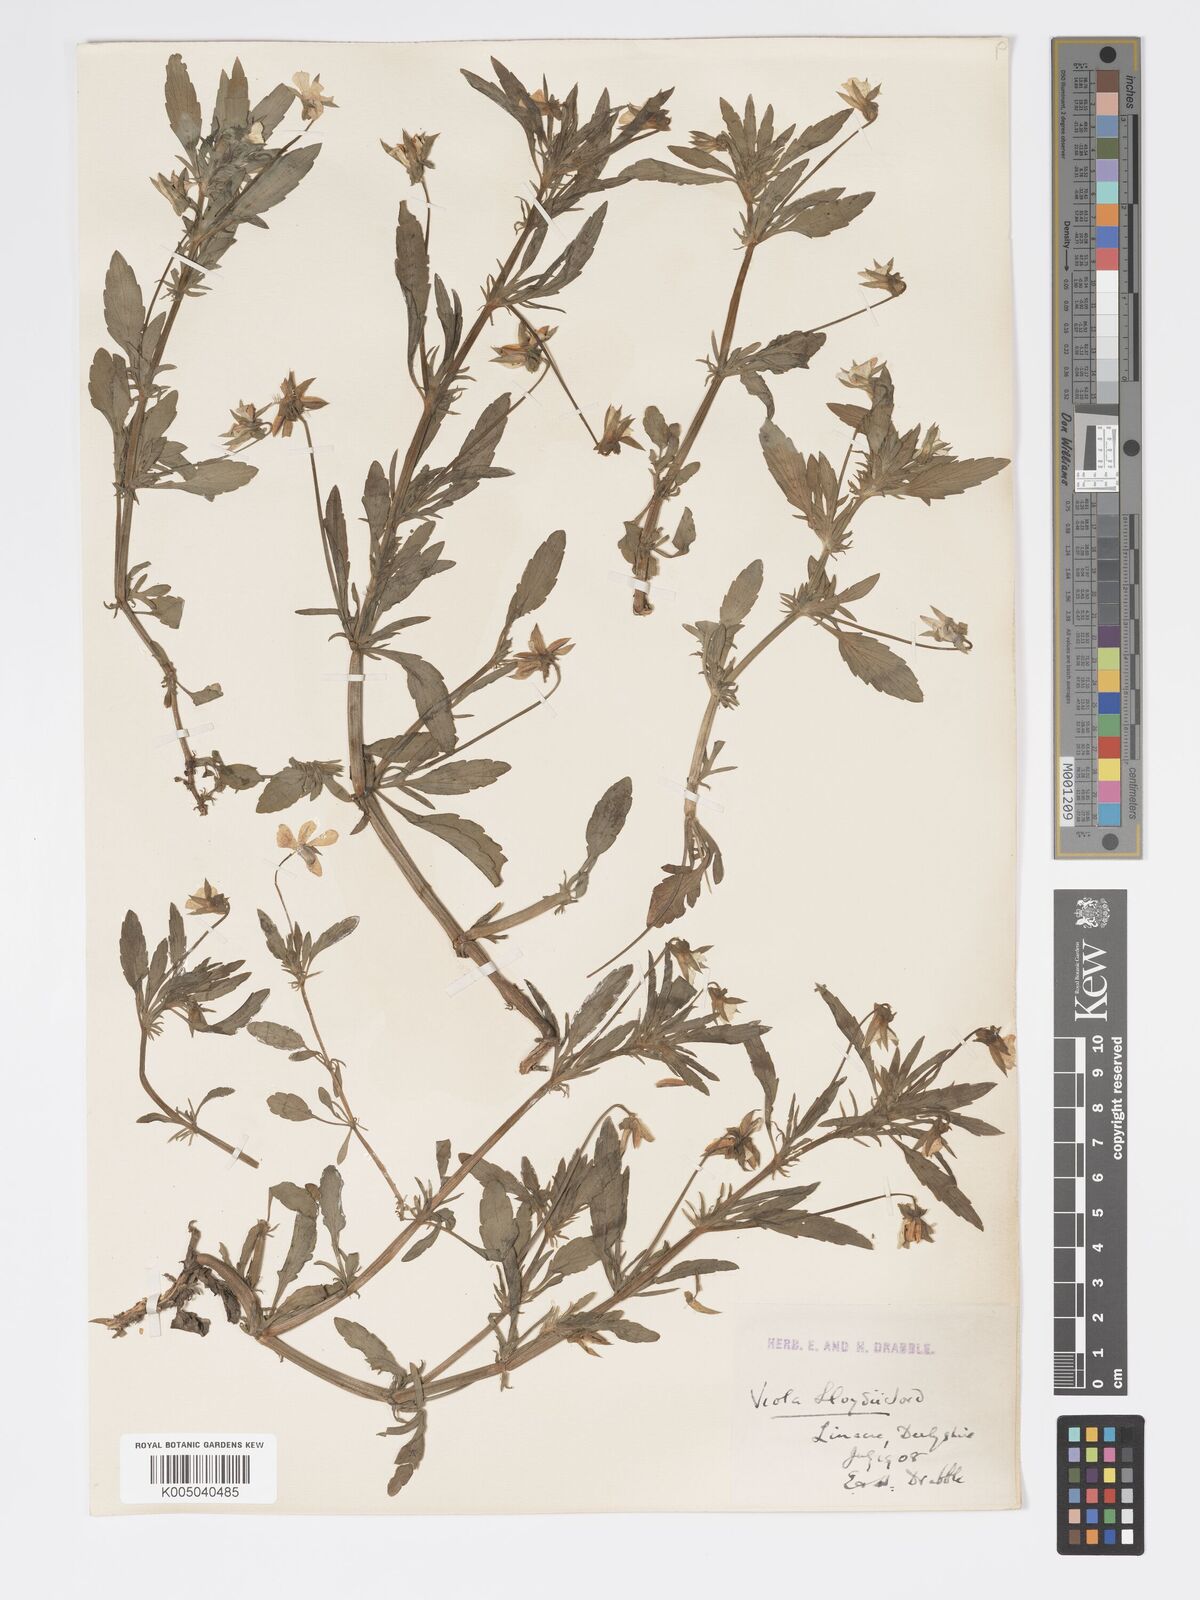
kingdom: Plantae
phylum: Tracheophyta
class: Magnoliopsida
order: Malpighiales
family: Violaceae
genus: Viola
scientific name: Viola arvensis
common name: Field pansy
